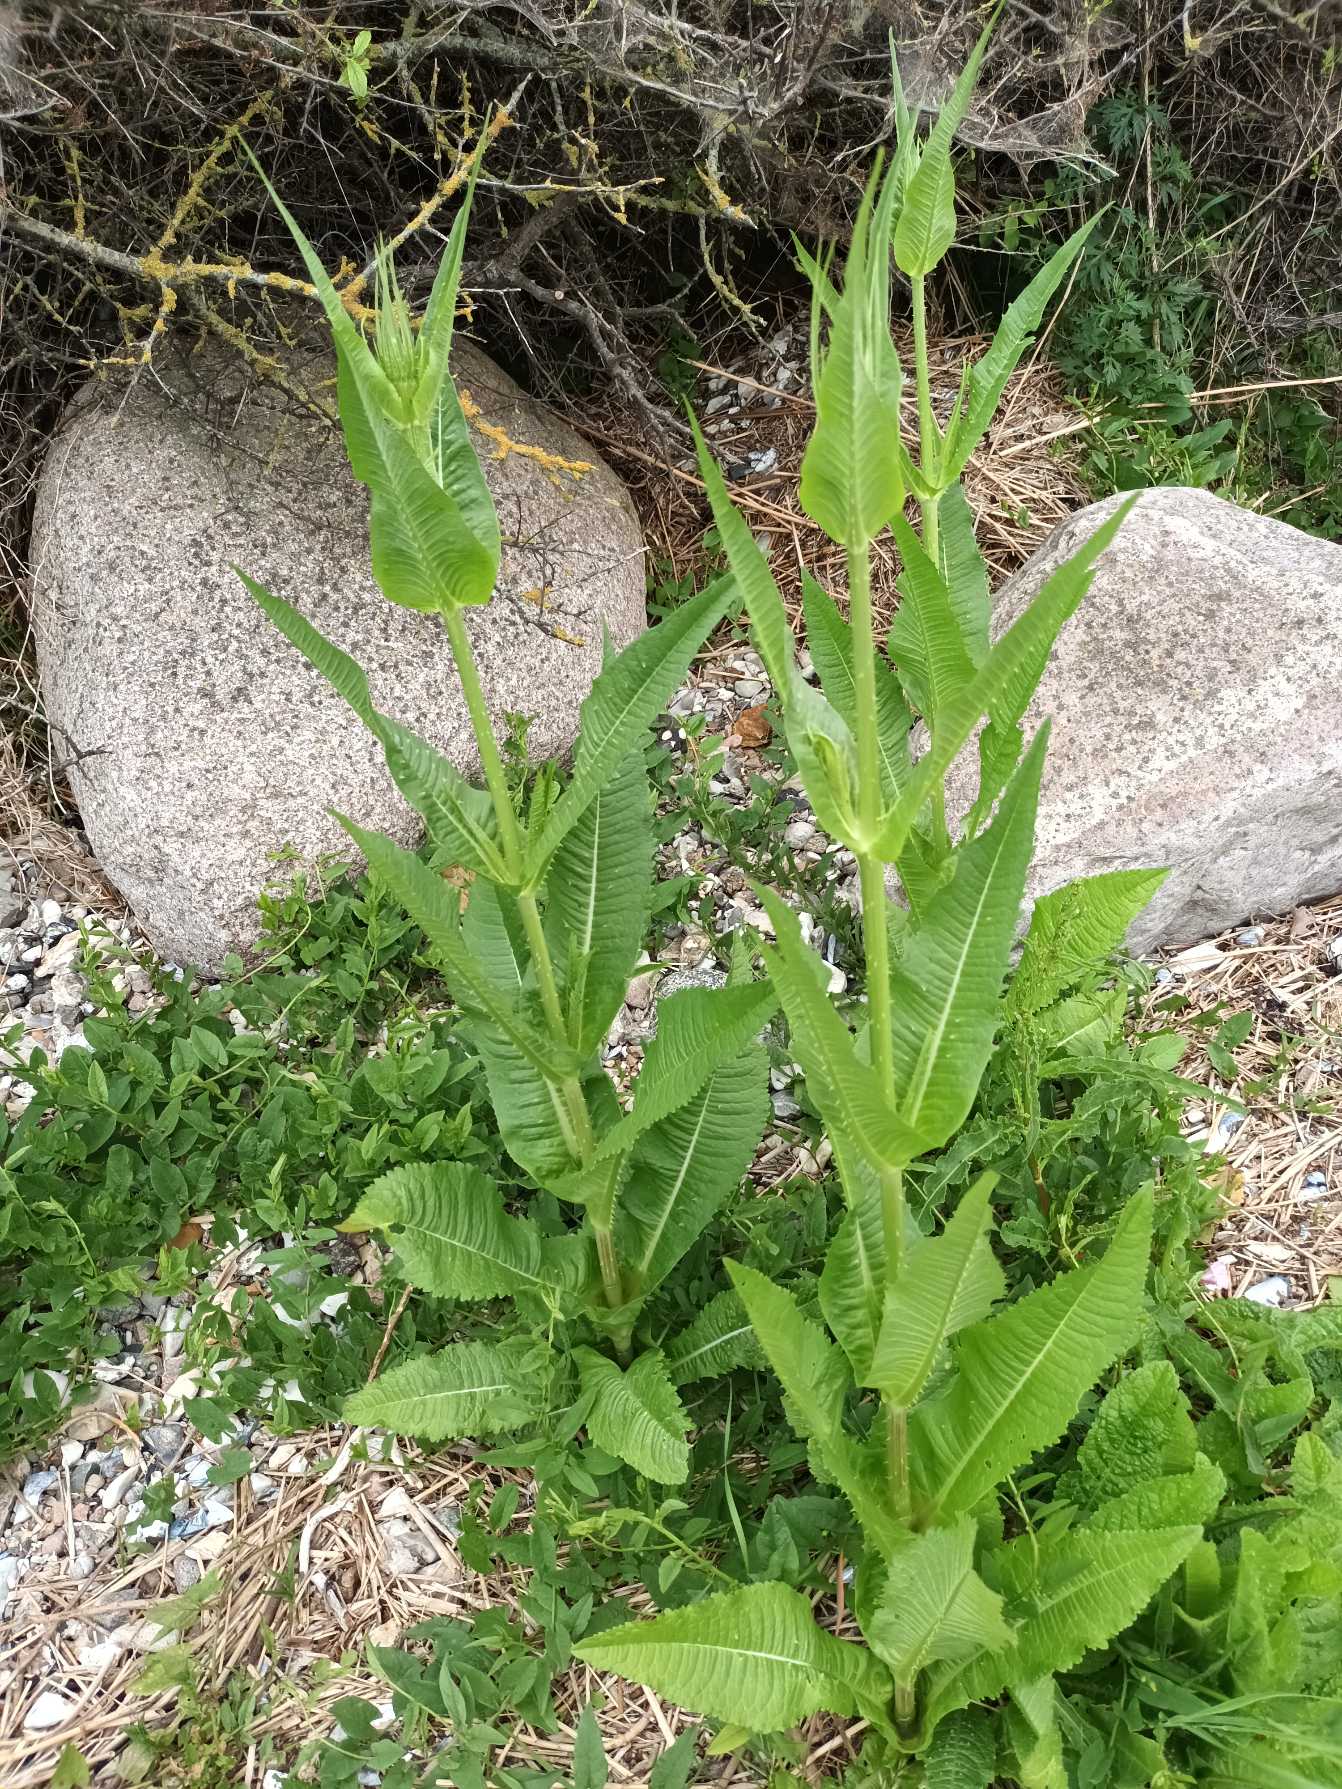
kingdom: Plantae
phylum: Tracheophyta
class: Magnoliopsida
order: Dipsacales
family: Caprifoliaceae
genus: Dipsacus
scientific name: Dipsacus fullonum
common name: Gærde-kartebolle
